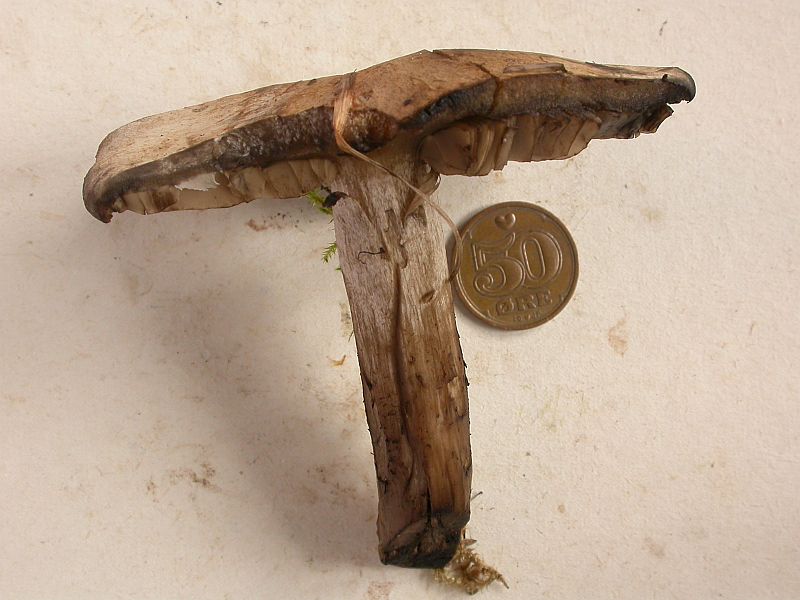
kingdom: Fungi
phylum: Basidiomycota
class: Agaricomycetes
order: Agaricales
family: Lyophyllaceae
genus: Calocybe
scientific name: Calocybe gangraenosa
